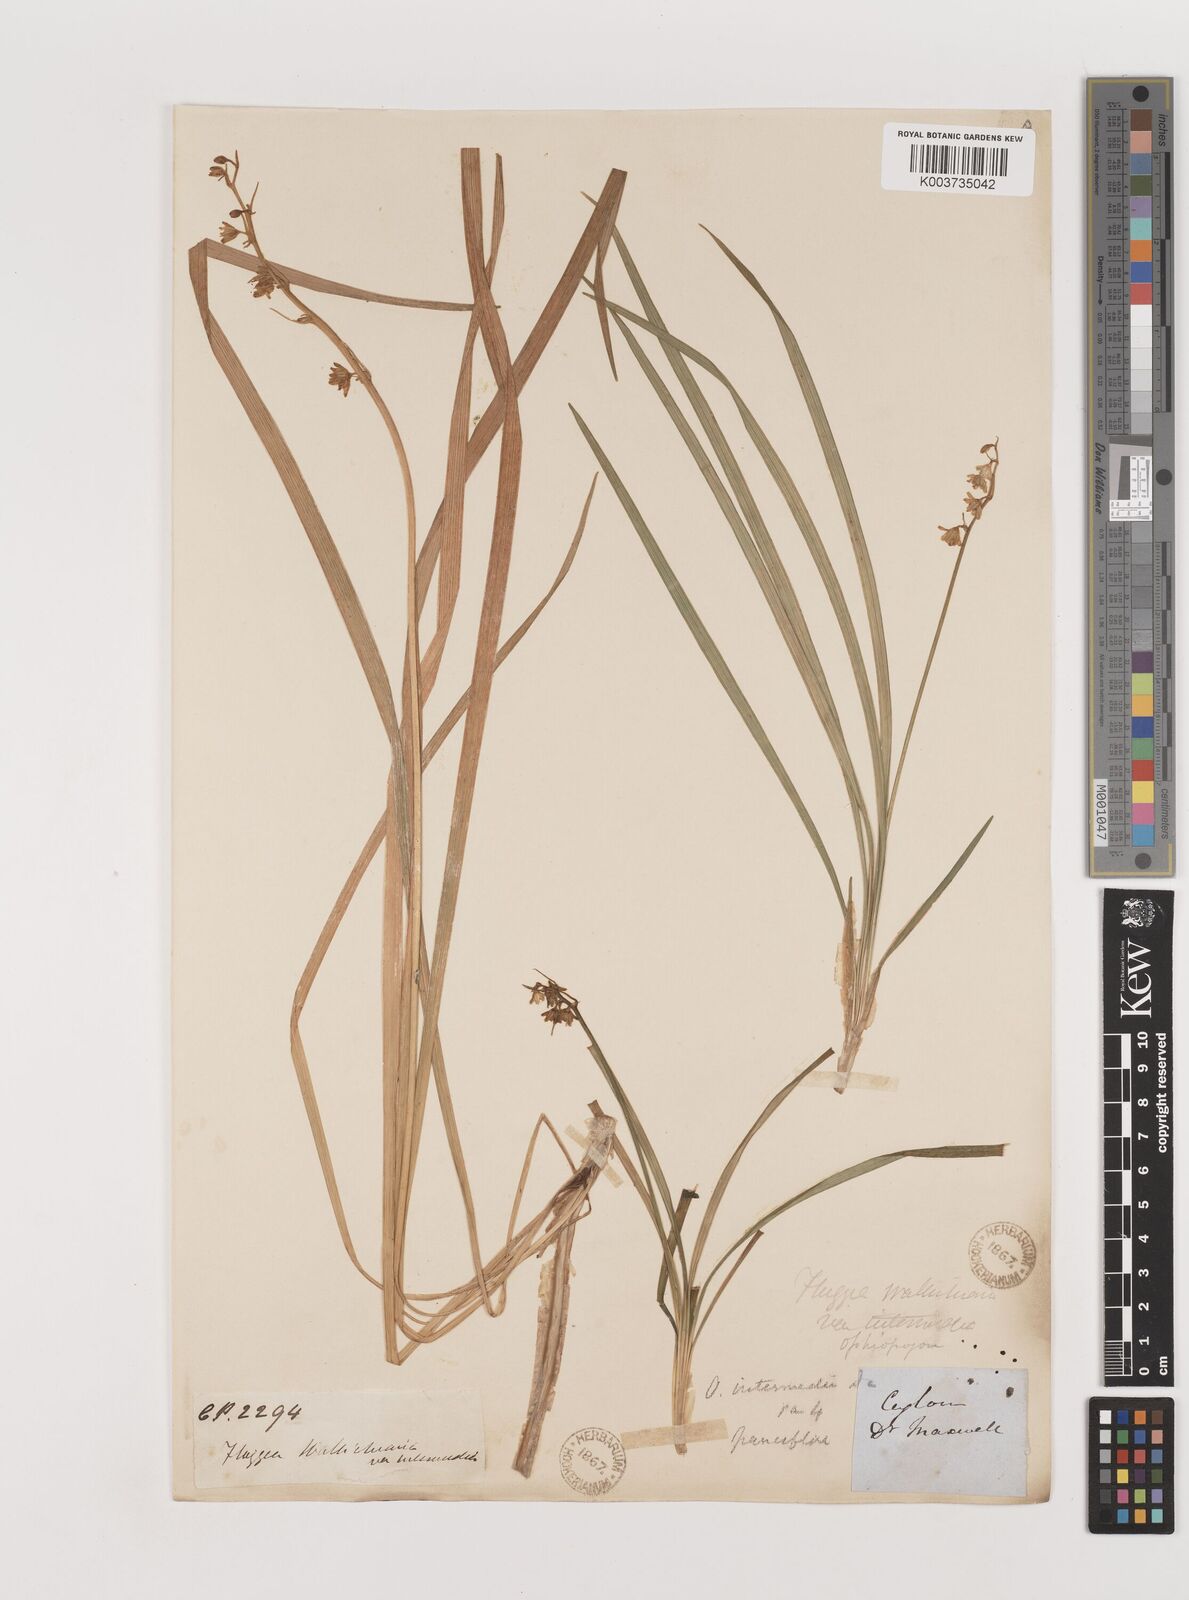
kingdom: Plantae
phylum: Tracheophyta
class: Liliopsida
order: Asparagales
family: Asparagaceae
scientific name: Asparagaceae
